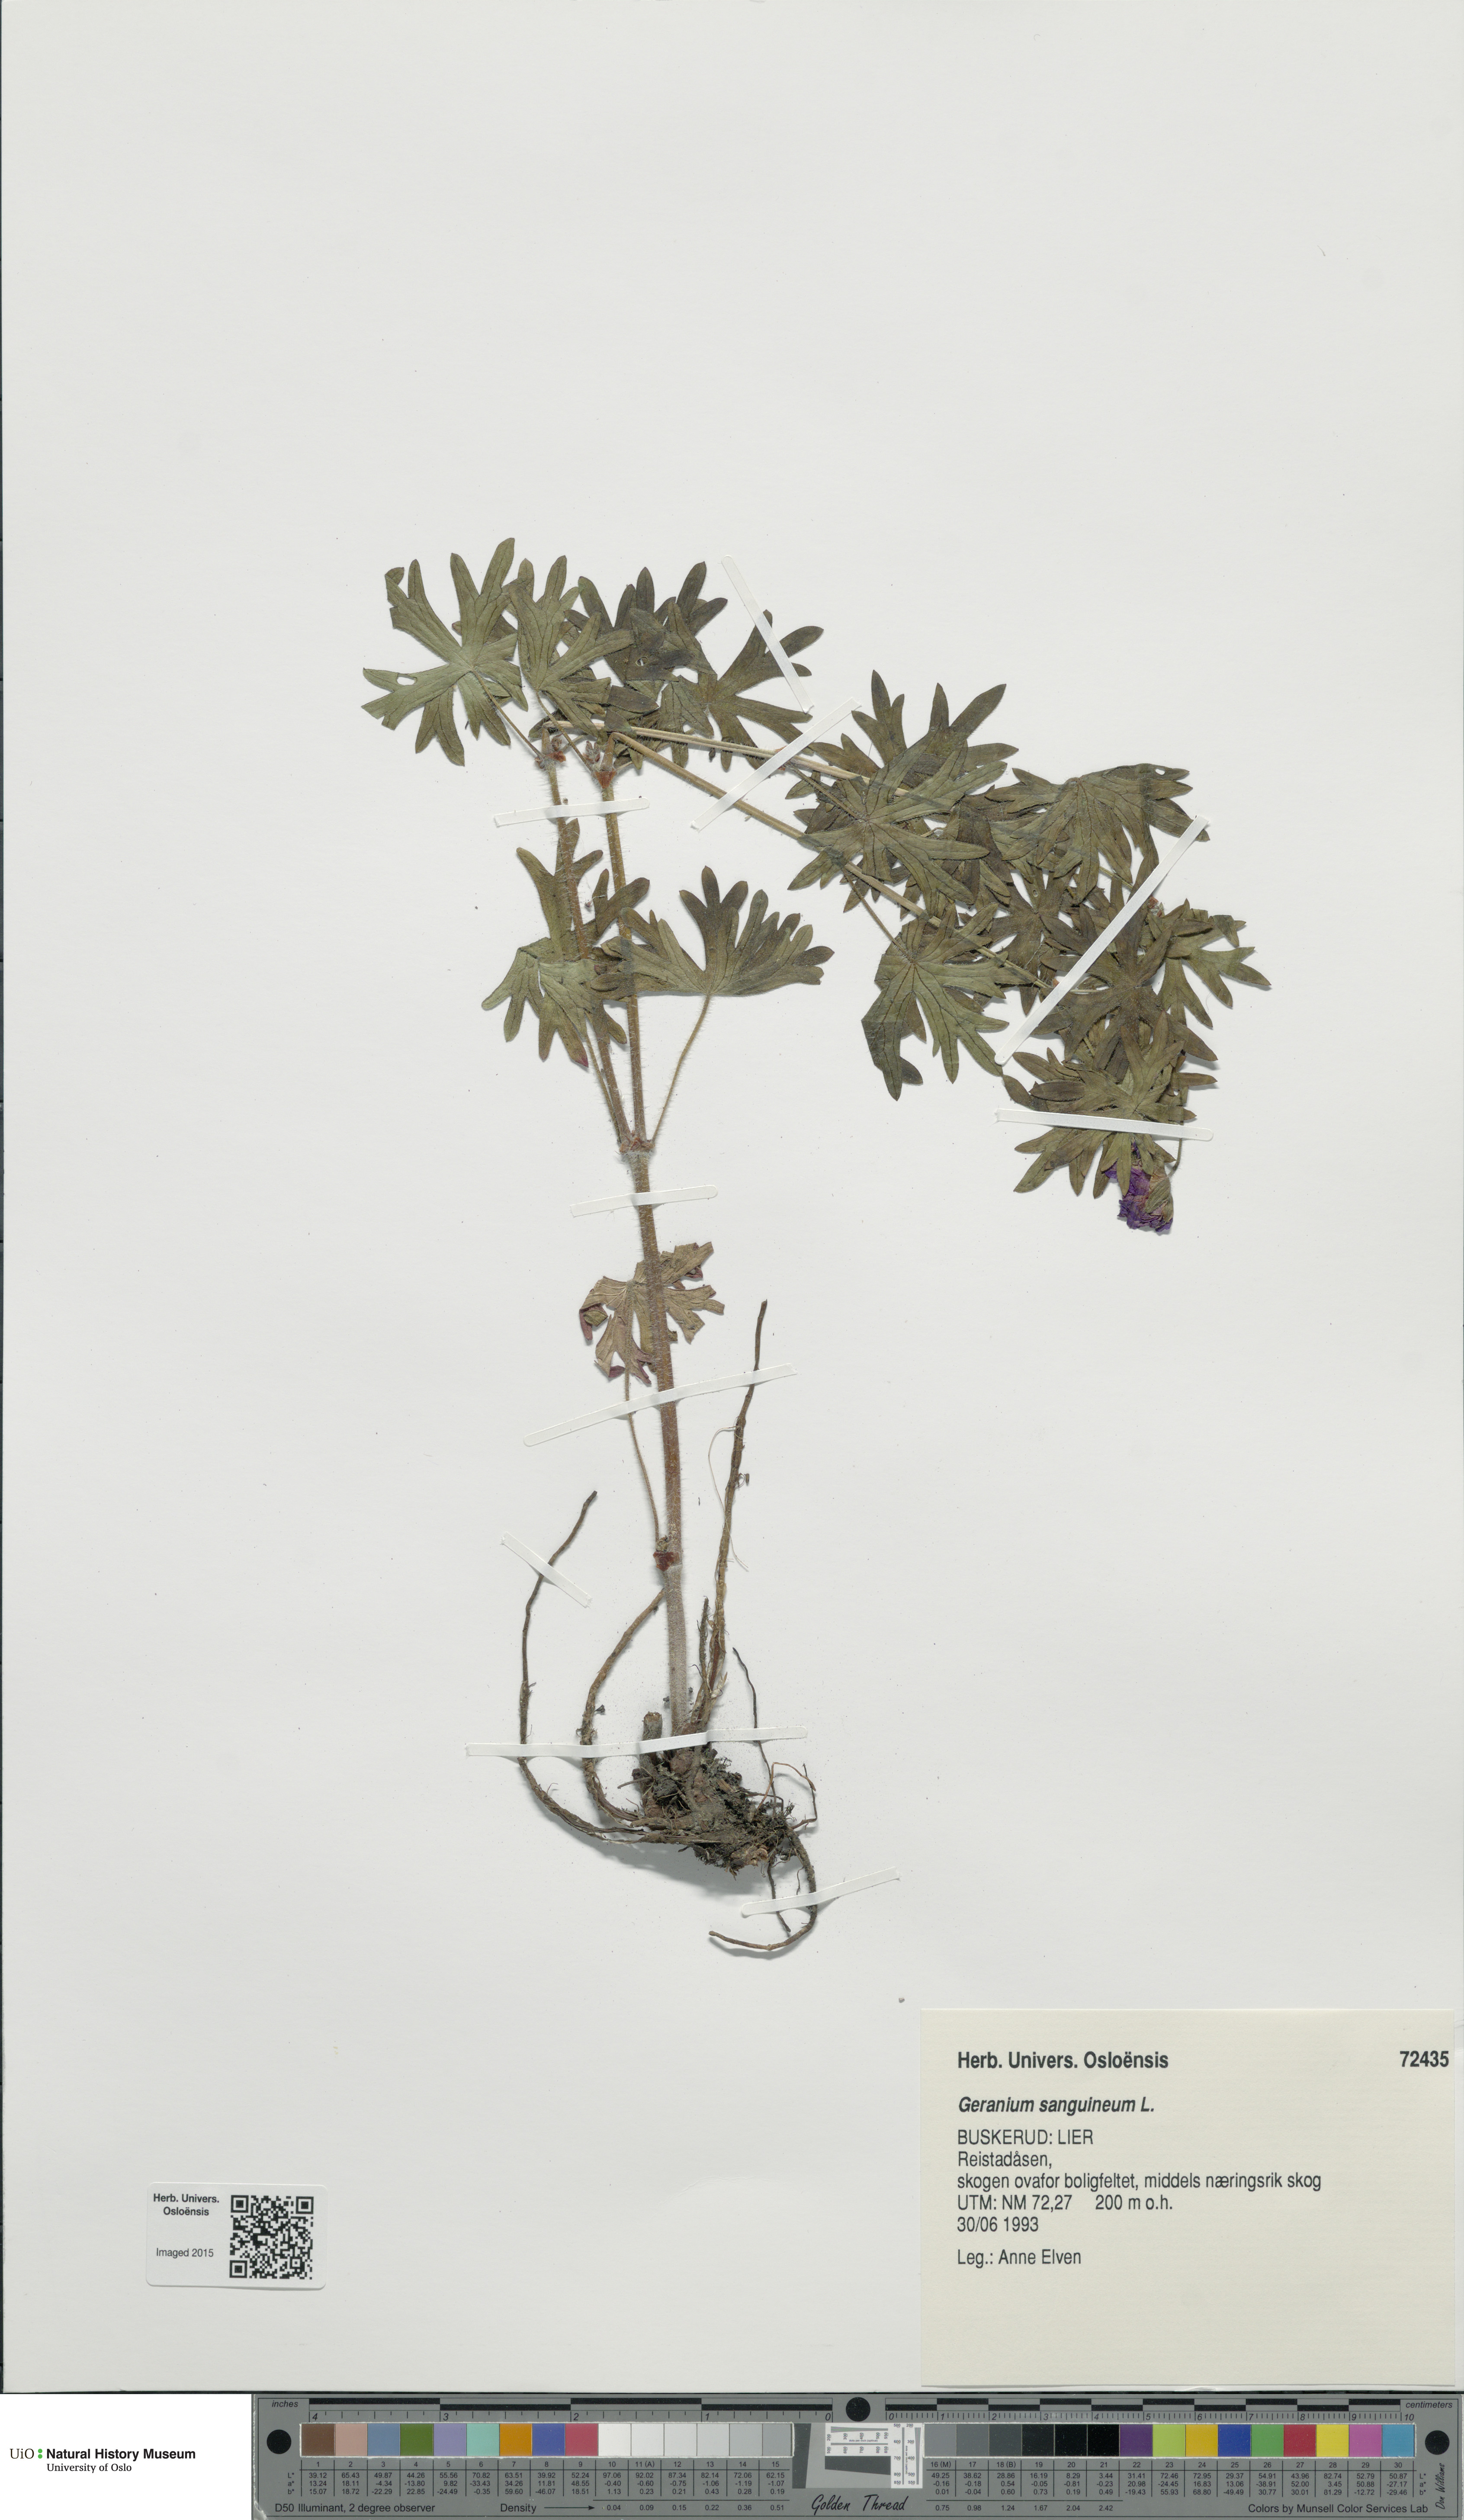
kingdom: Plantae
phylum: Tracheophyta
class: Magnoliopsida
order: Geraniales
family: Geraniaceae
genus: Geranium
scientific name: Geranium sanguineum
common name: Bloody crane's-bill
